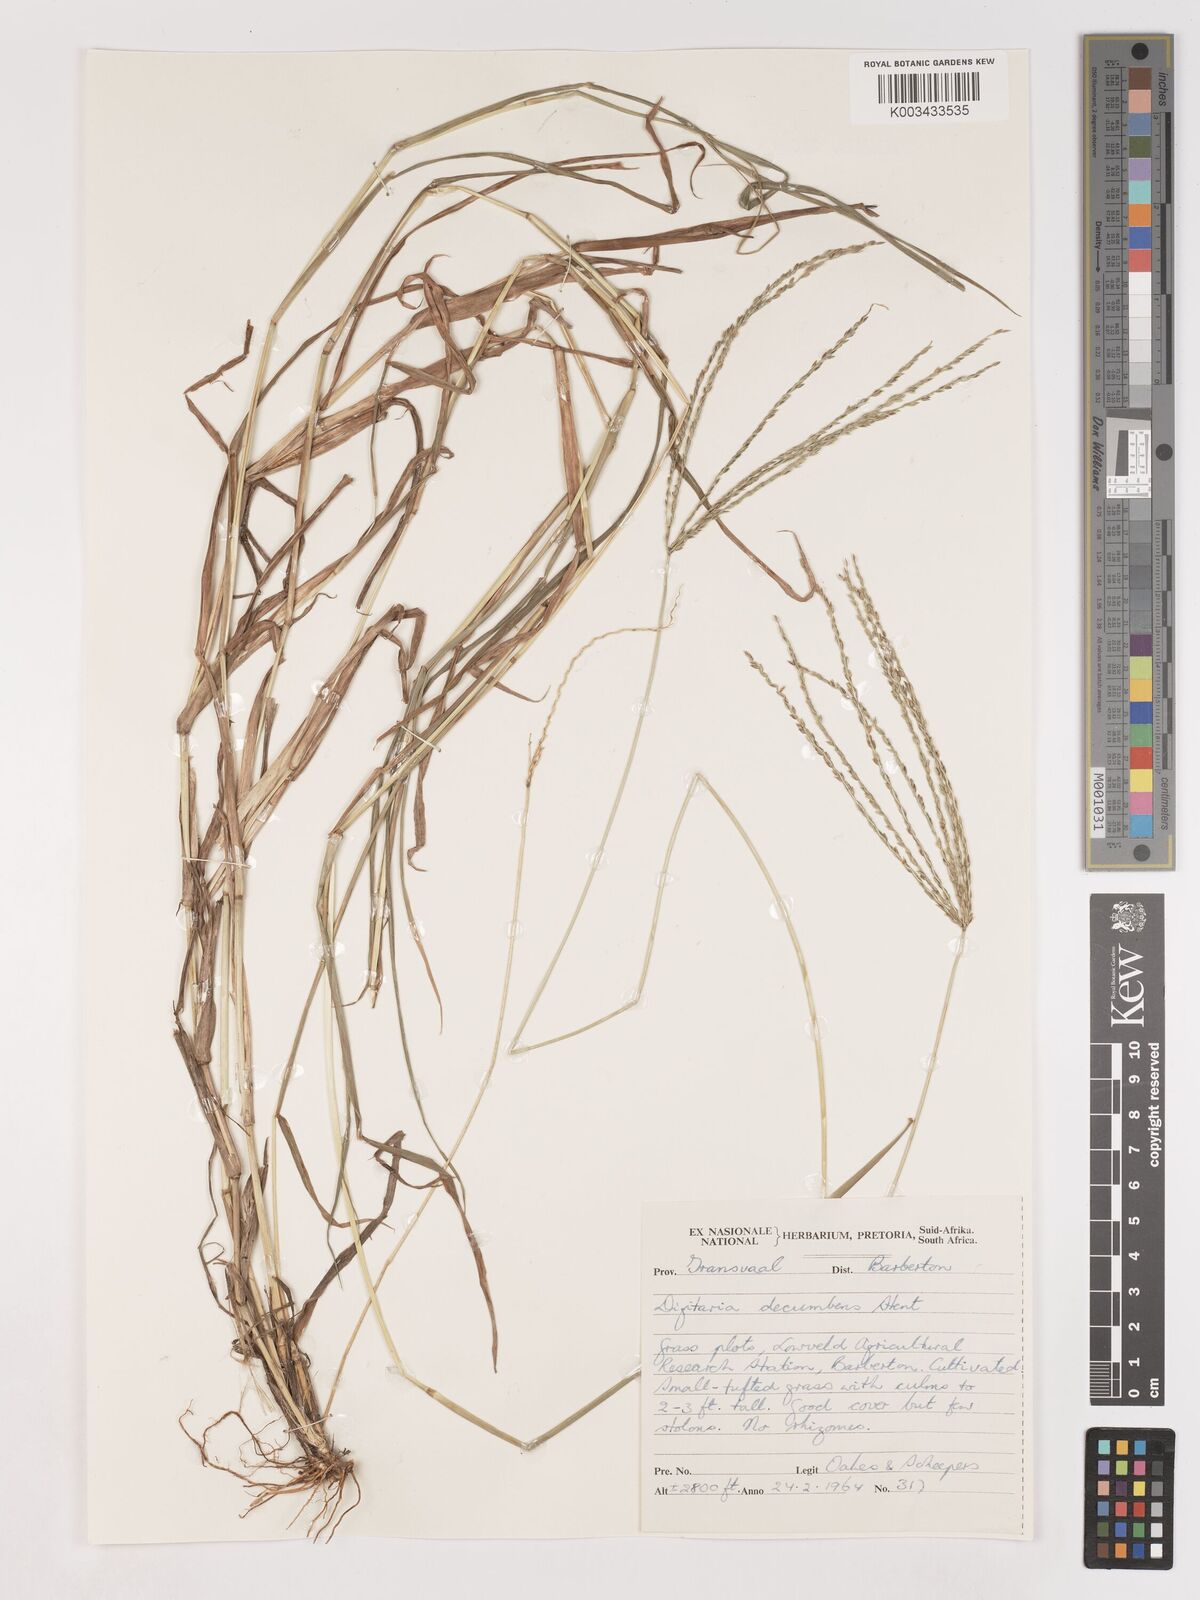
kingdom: Plantae
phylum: Tracheophyta
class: Liliopsida
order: Poales
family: Poaceae
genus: Digitaria
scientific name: Digitaria eriantha
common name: Digitgrass
